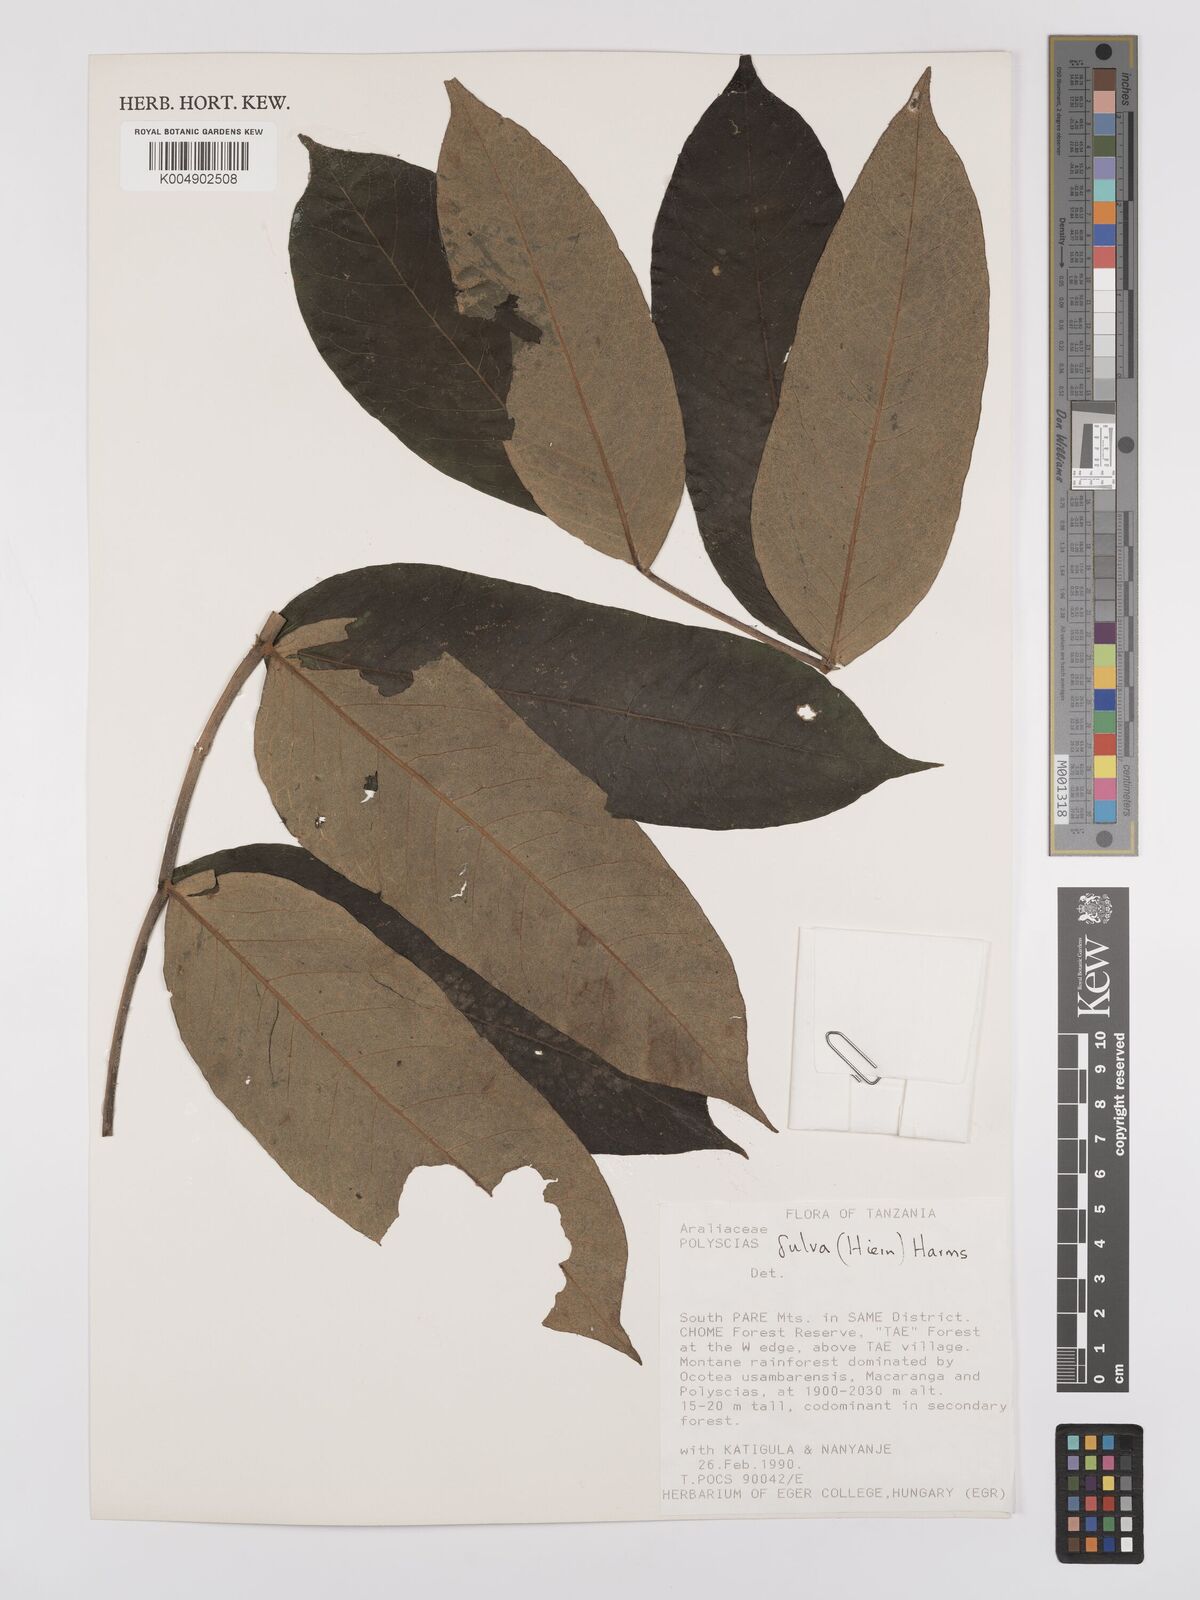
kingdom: Plantae
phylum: Tracheophyta
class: Magnoliopsida
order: Apiales
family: Araliaceae
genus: Polyscias
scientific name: Polyscias fulva
